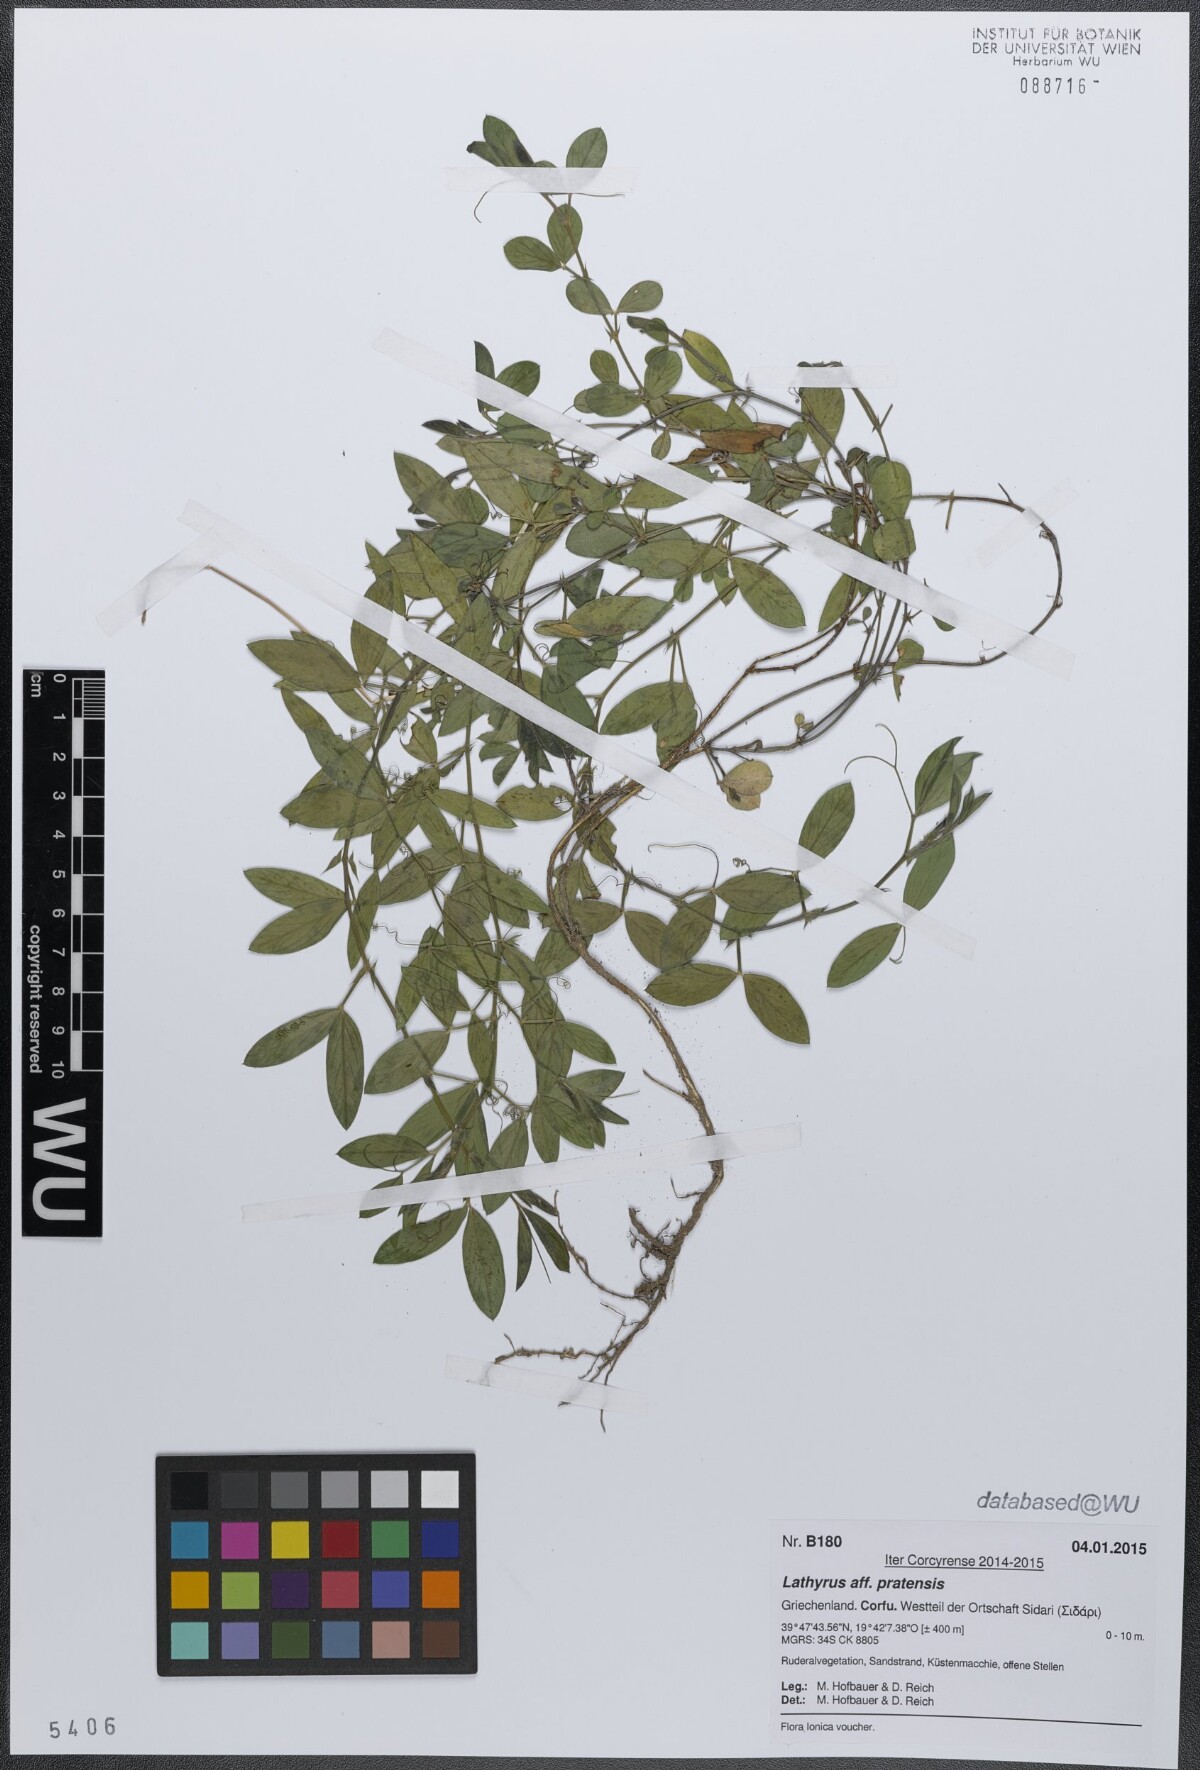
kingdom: Plantae
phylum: Tracheophyta
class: Magnoliopsida
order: Fabales
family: Fabaceae
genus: Lathyrus
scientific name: Lathyrus pratensis
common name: Meadow vetchling
